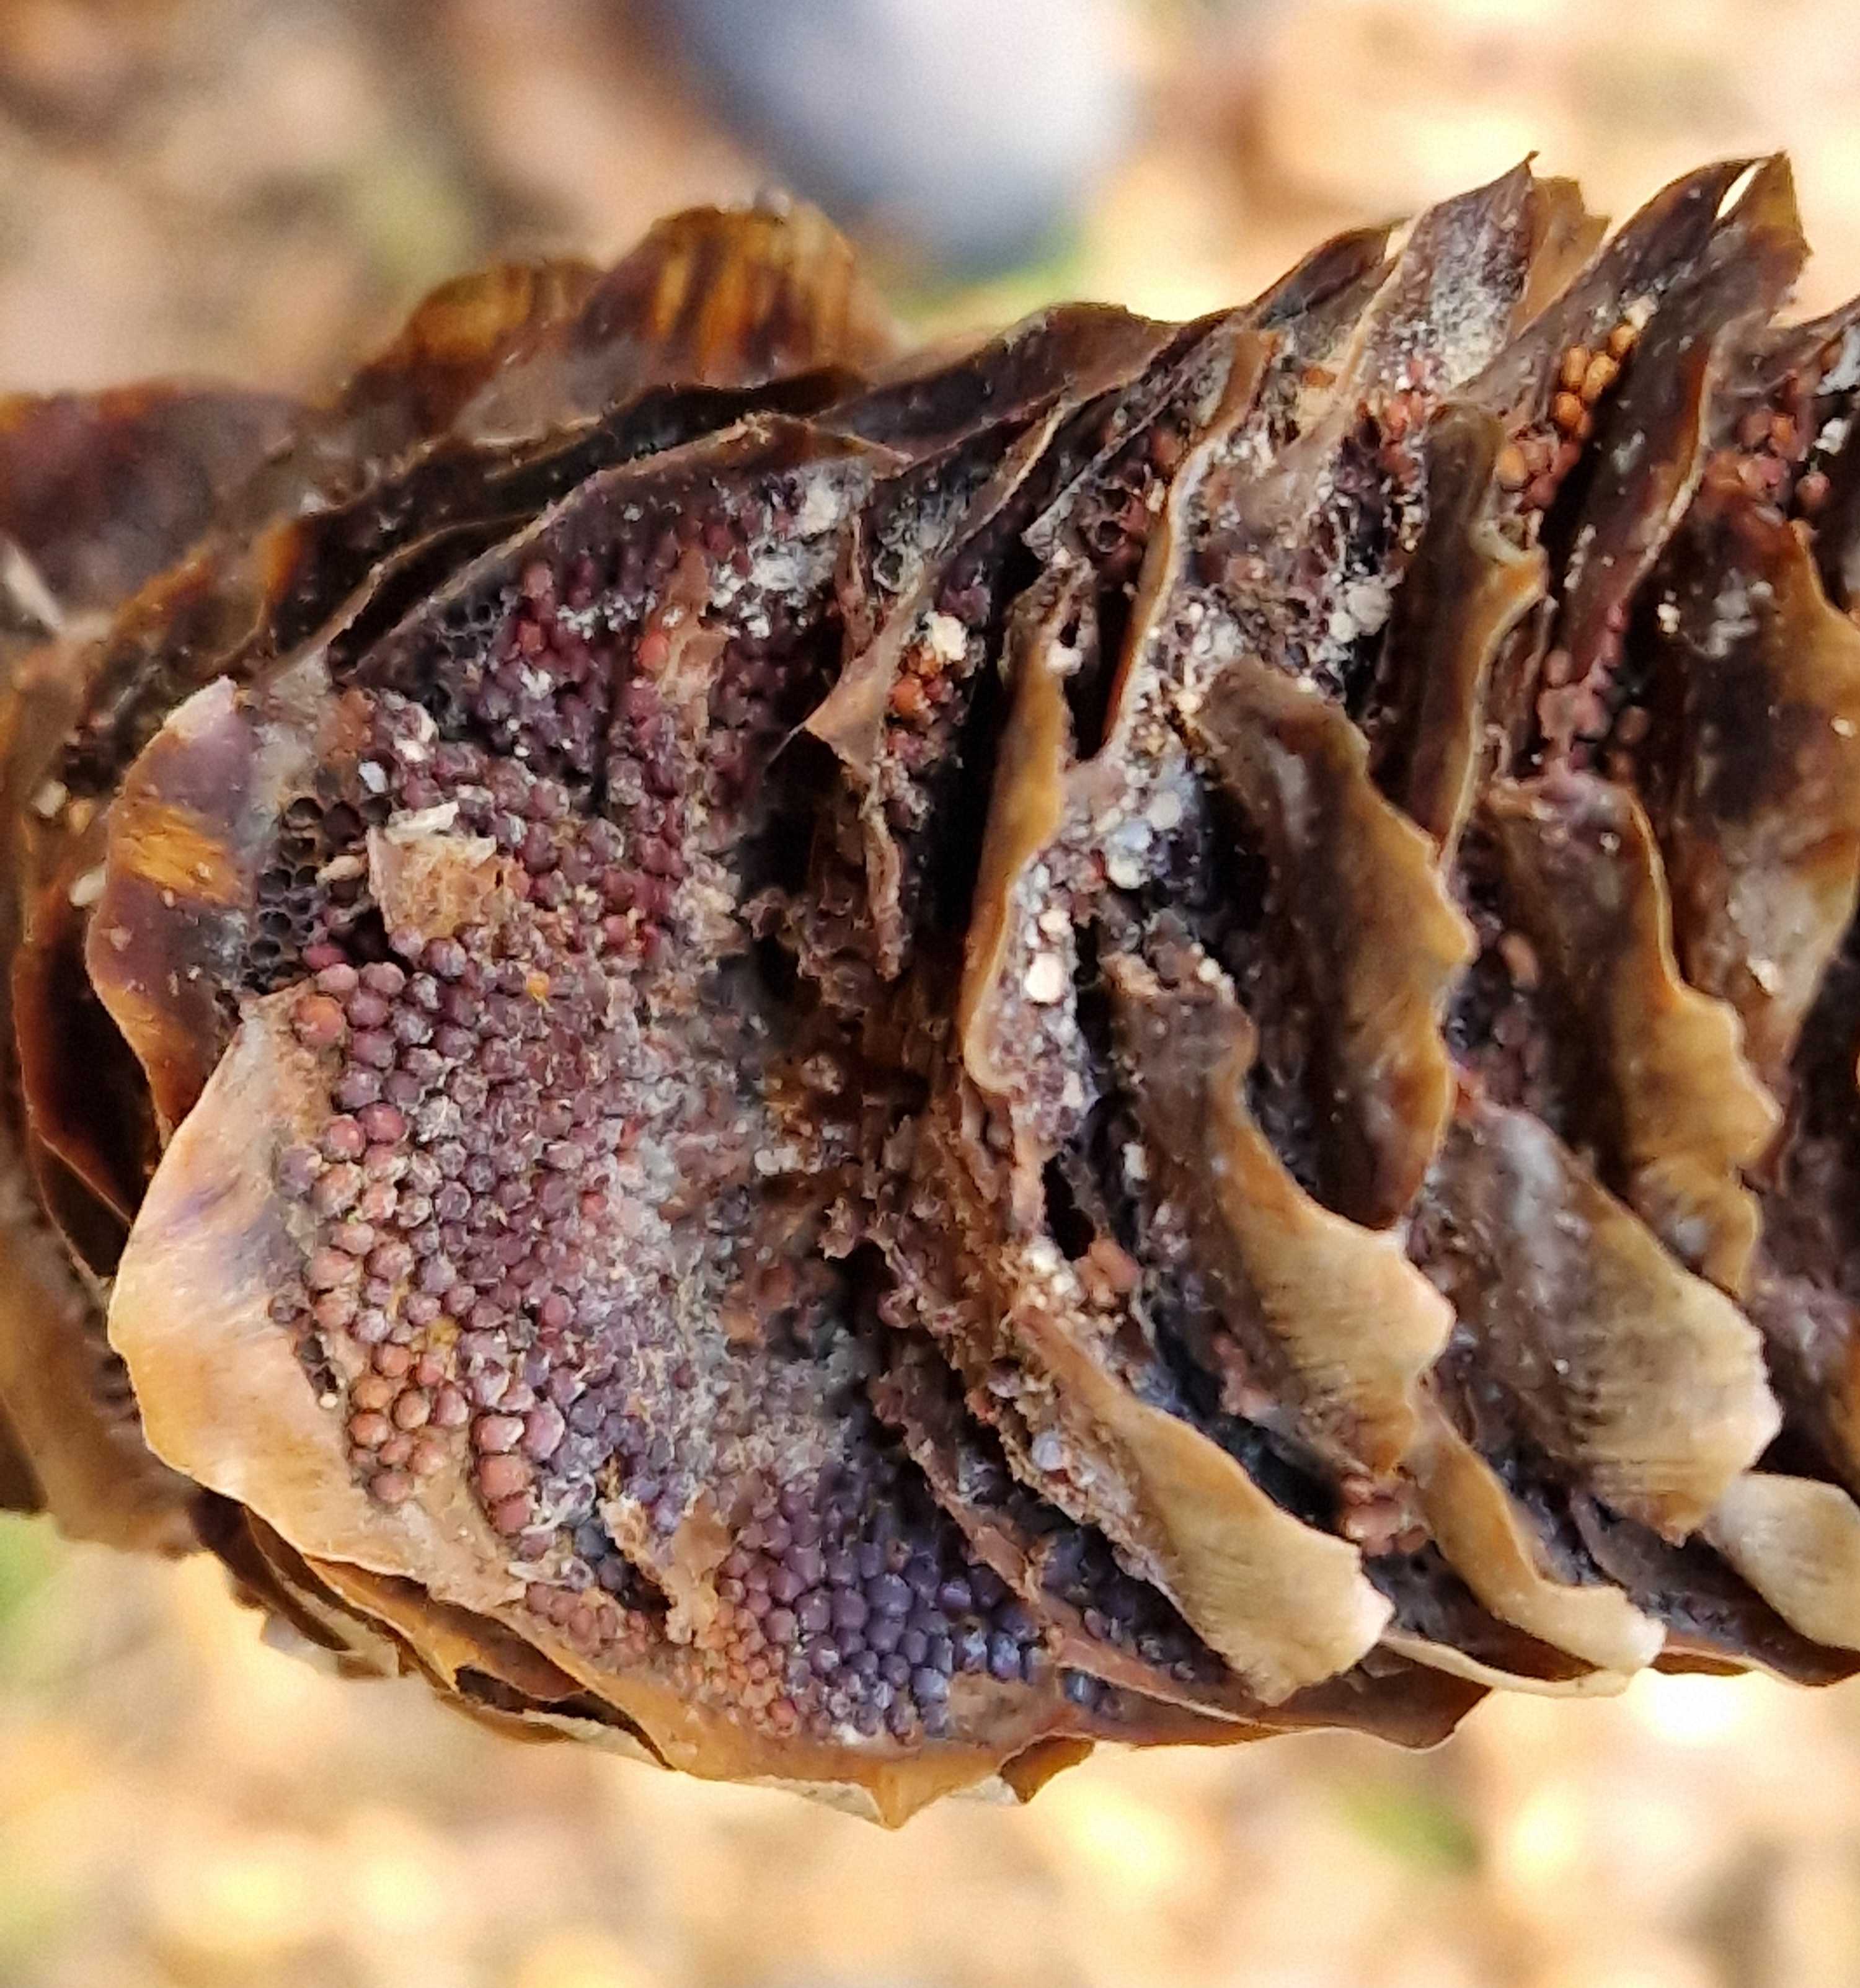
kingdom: Fungi
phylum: Basidiomycota
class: Pucciniomycetes
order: Pucciniales
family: Pucciniastraceae
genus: Thekopsora
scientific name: Thekopsora areolata
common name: grankogle-nålerust
